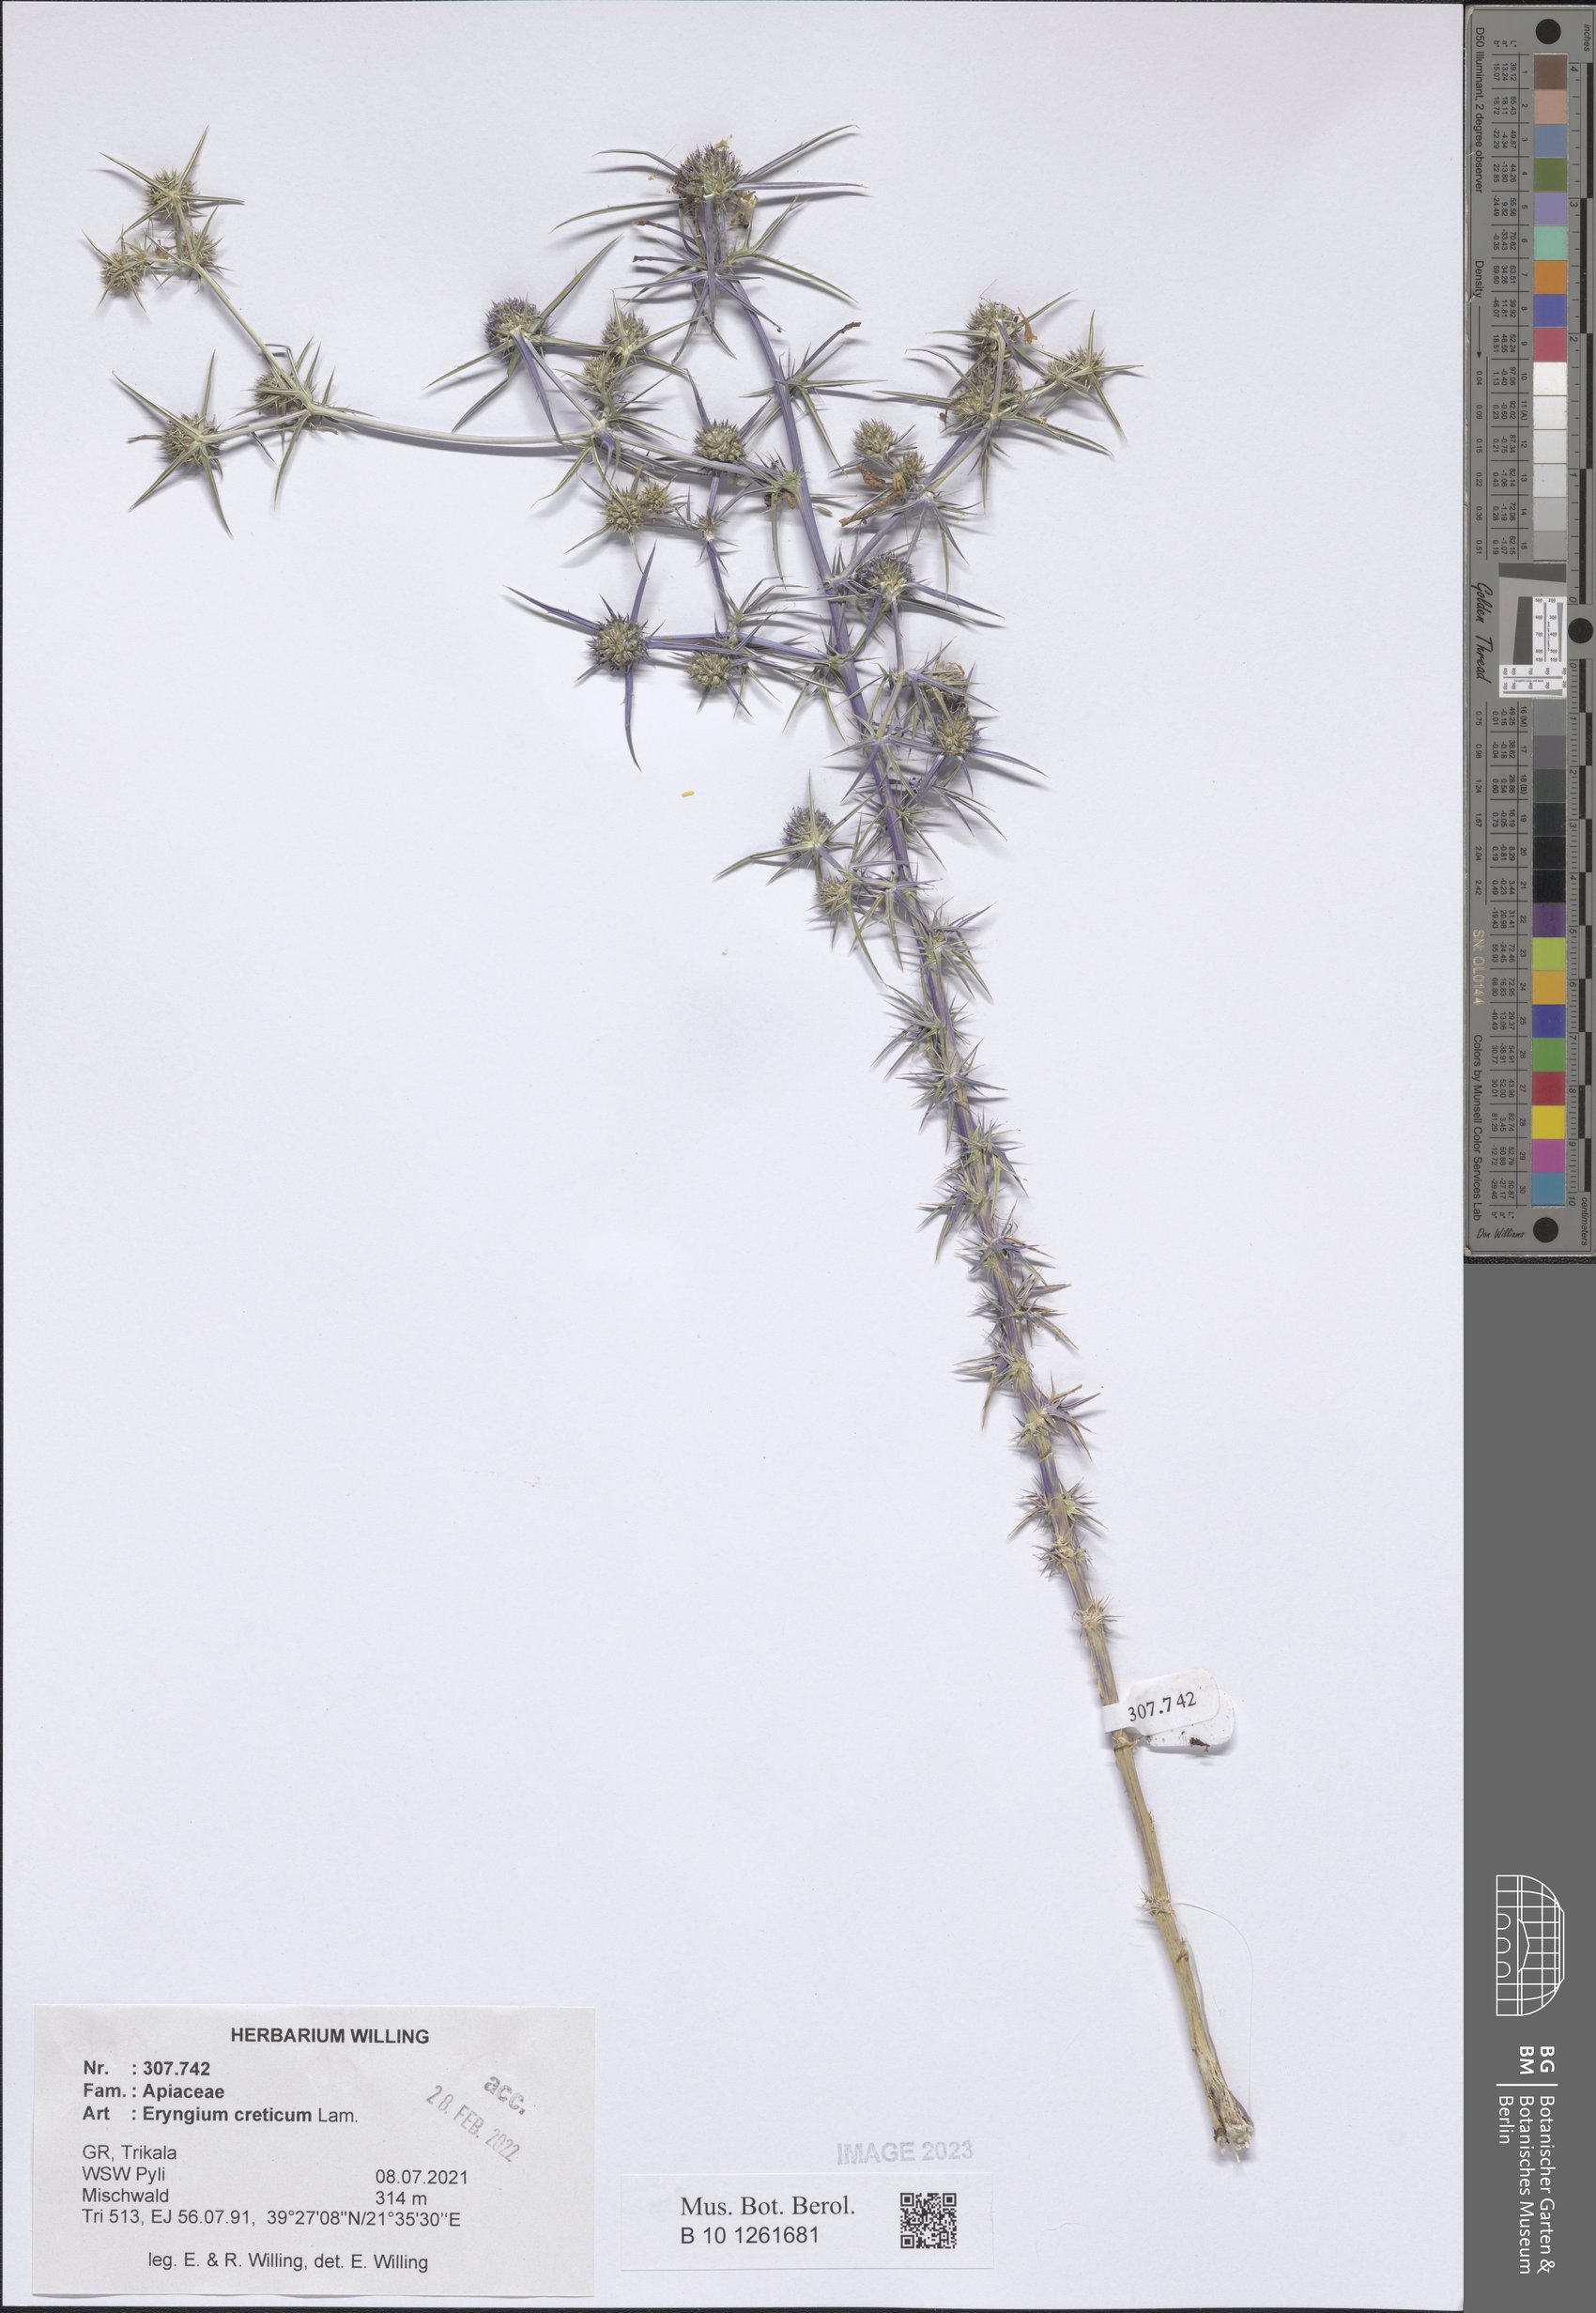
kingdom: Plantae
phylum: Tracheophyta
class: Magnoliopsida
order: Apiales
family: Apiaceae
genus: Eryngium
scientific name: Eryngium creticum
